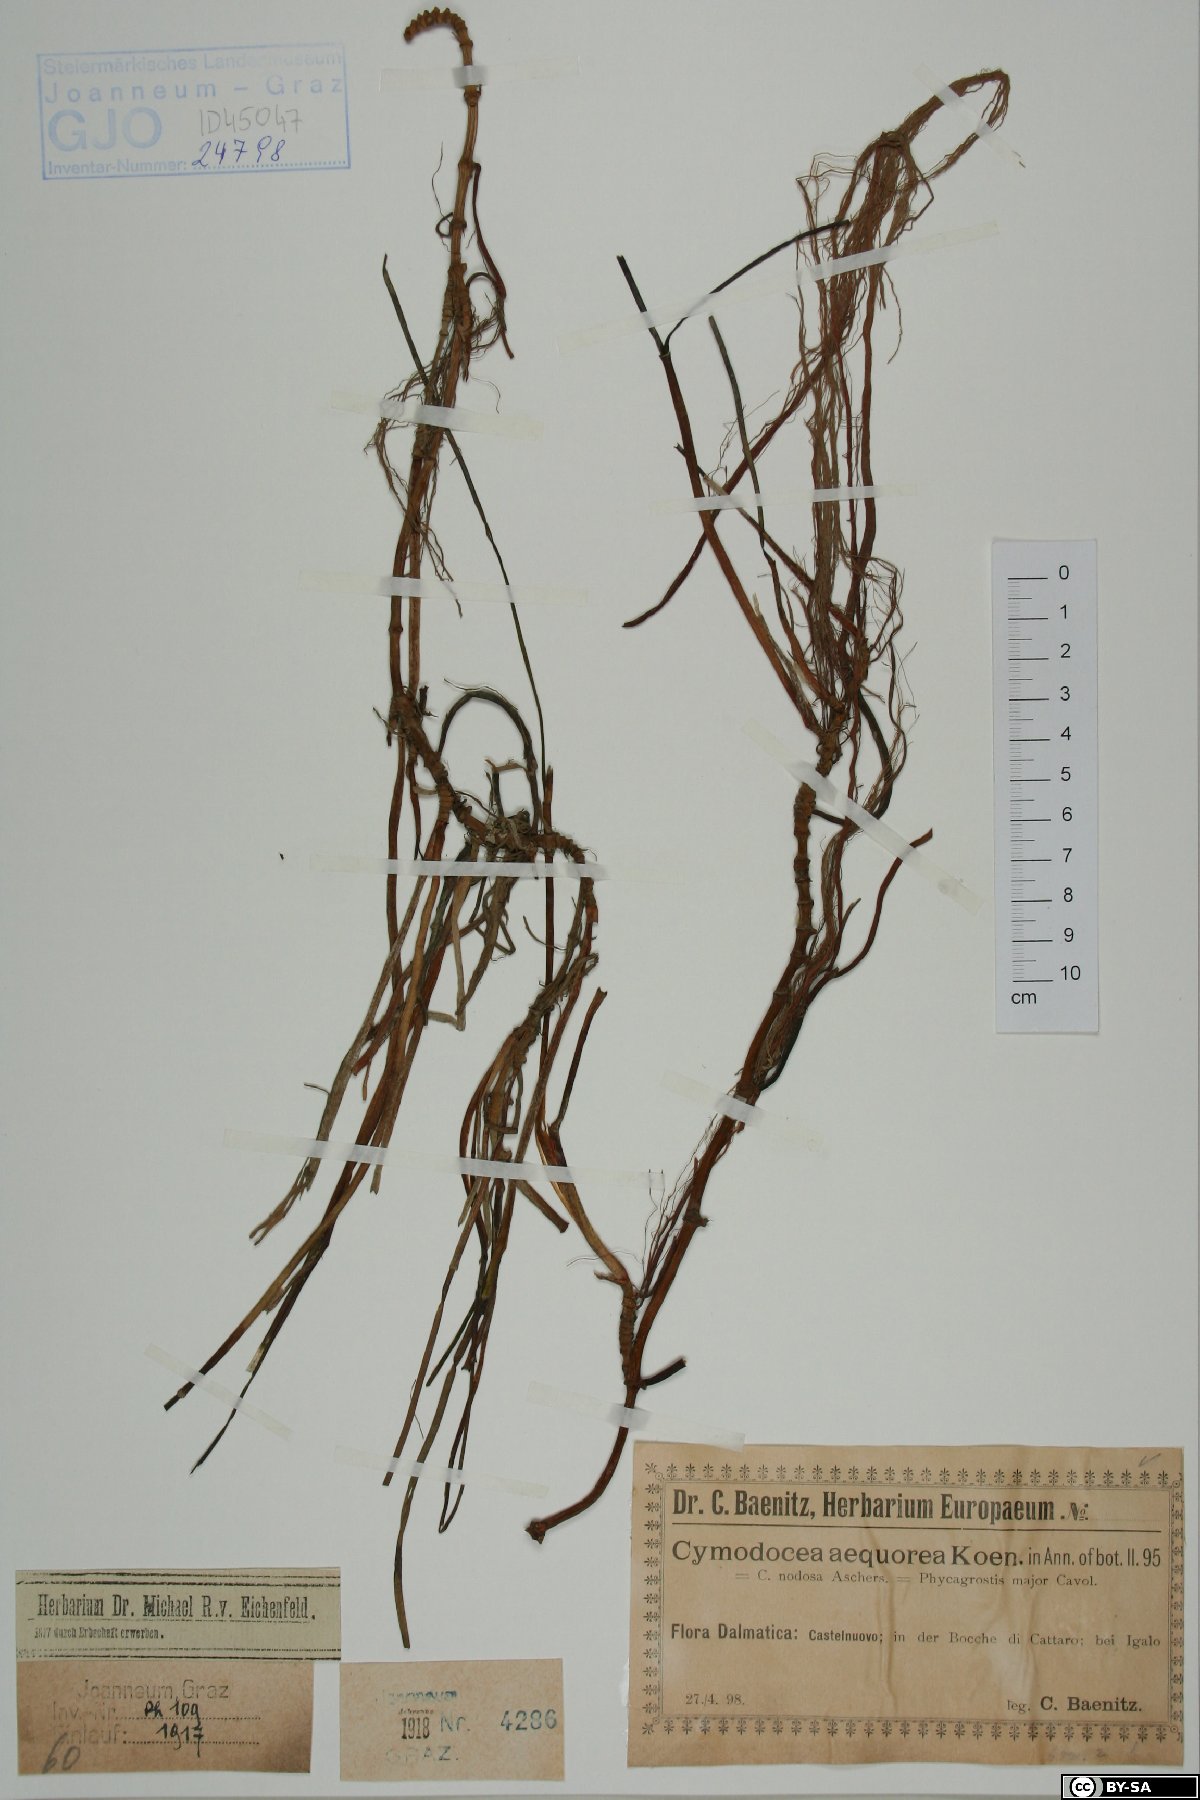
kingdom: Plantae
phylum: Tracheophyta
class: Liliopsida
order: Alismatales
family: Cymodoceaceae
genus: Cymodocea
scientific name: Cymodocea nodosa
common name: Slender seagrass
